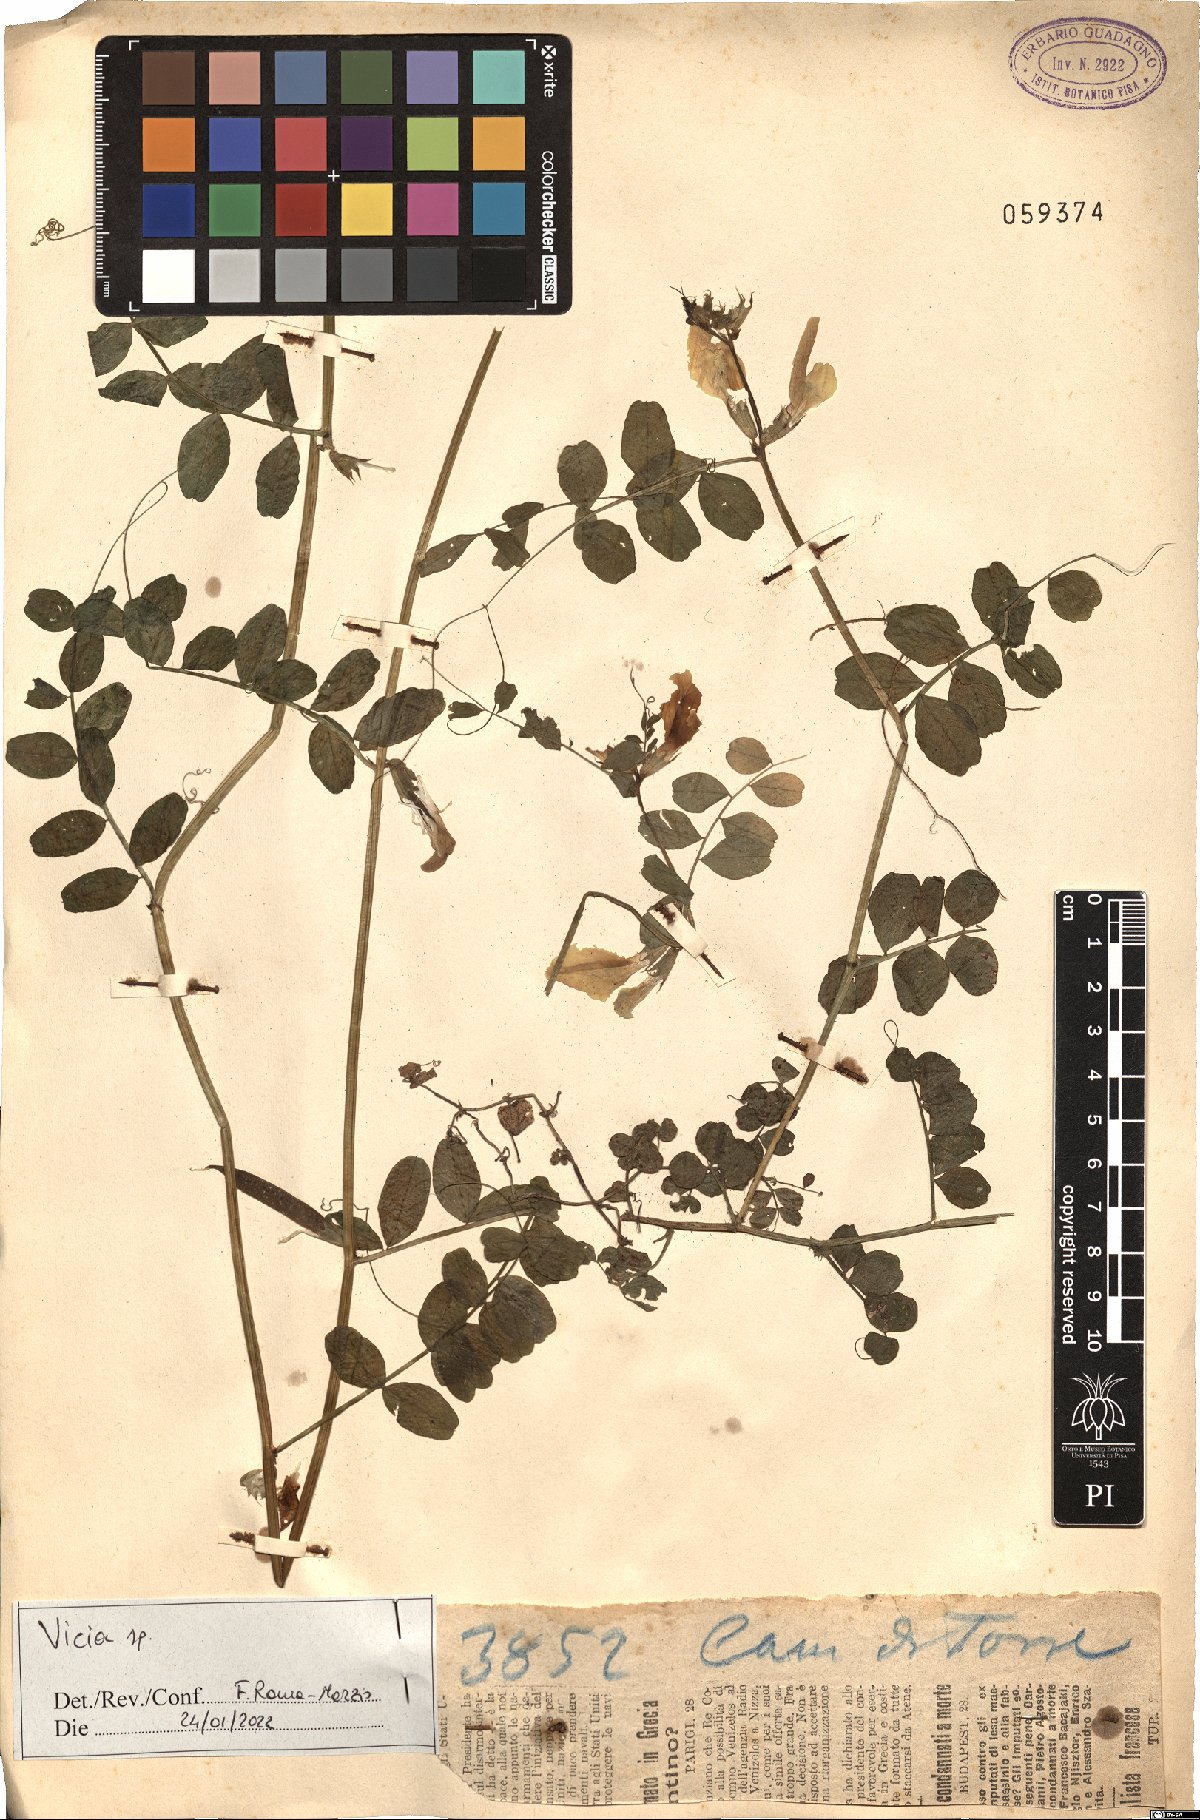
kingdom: Plantae
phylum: Tracheophyta
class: Magnoliopsida
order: Fabales
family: Fabaceae
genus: Vicia
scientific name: Vicia
